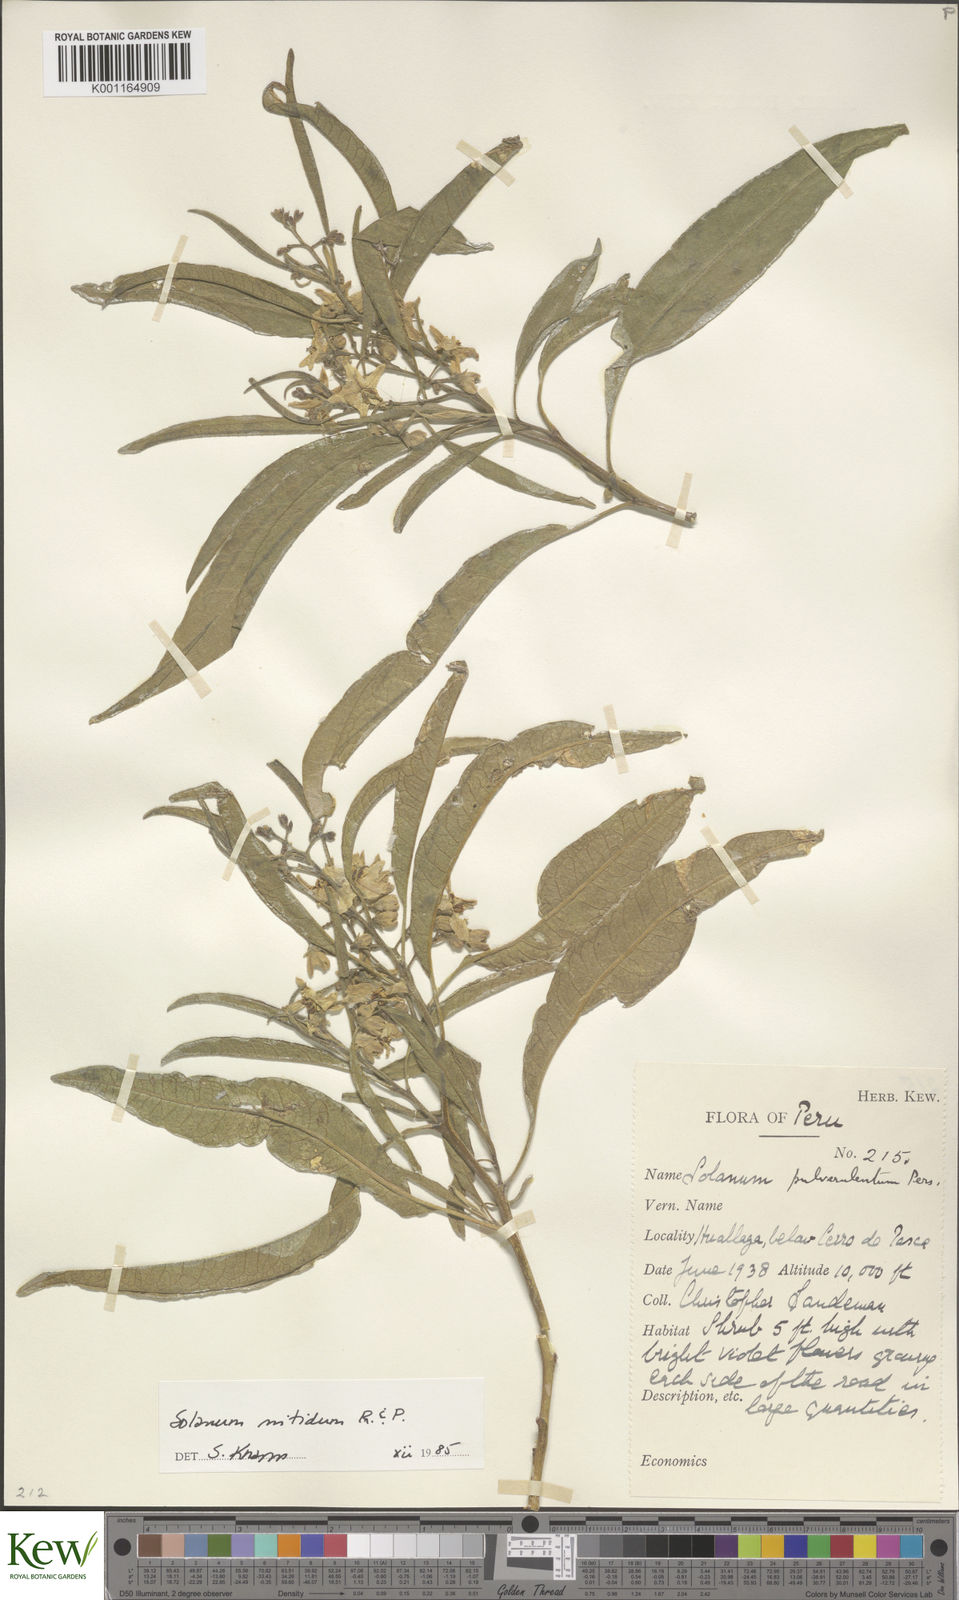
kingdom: Plantae
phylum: Tracheophyta
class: Magnoliopsida
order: Solanales
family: Solanaceae
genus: Solanum
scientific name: Solanum nitidum
